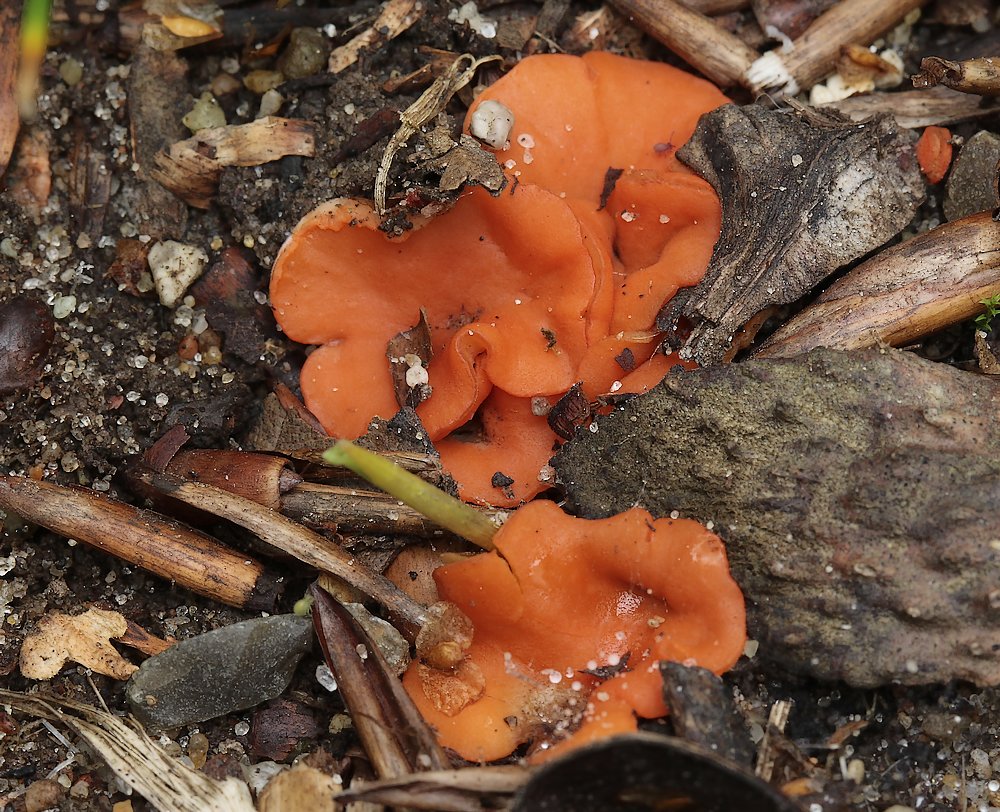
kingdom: Fungi
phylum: Ascomycota
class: Pezizomycetes
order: Pezizales
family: Pulvinulaceae
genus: Pulvinula
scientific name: Pulvinula miltina
